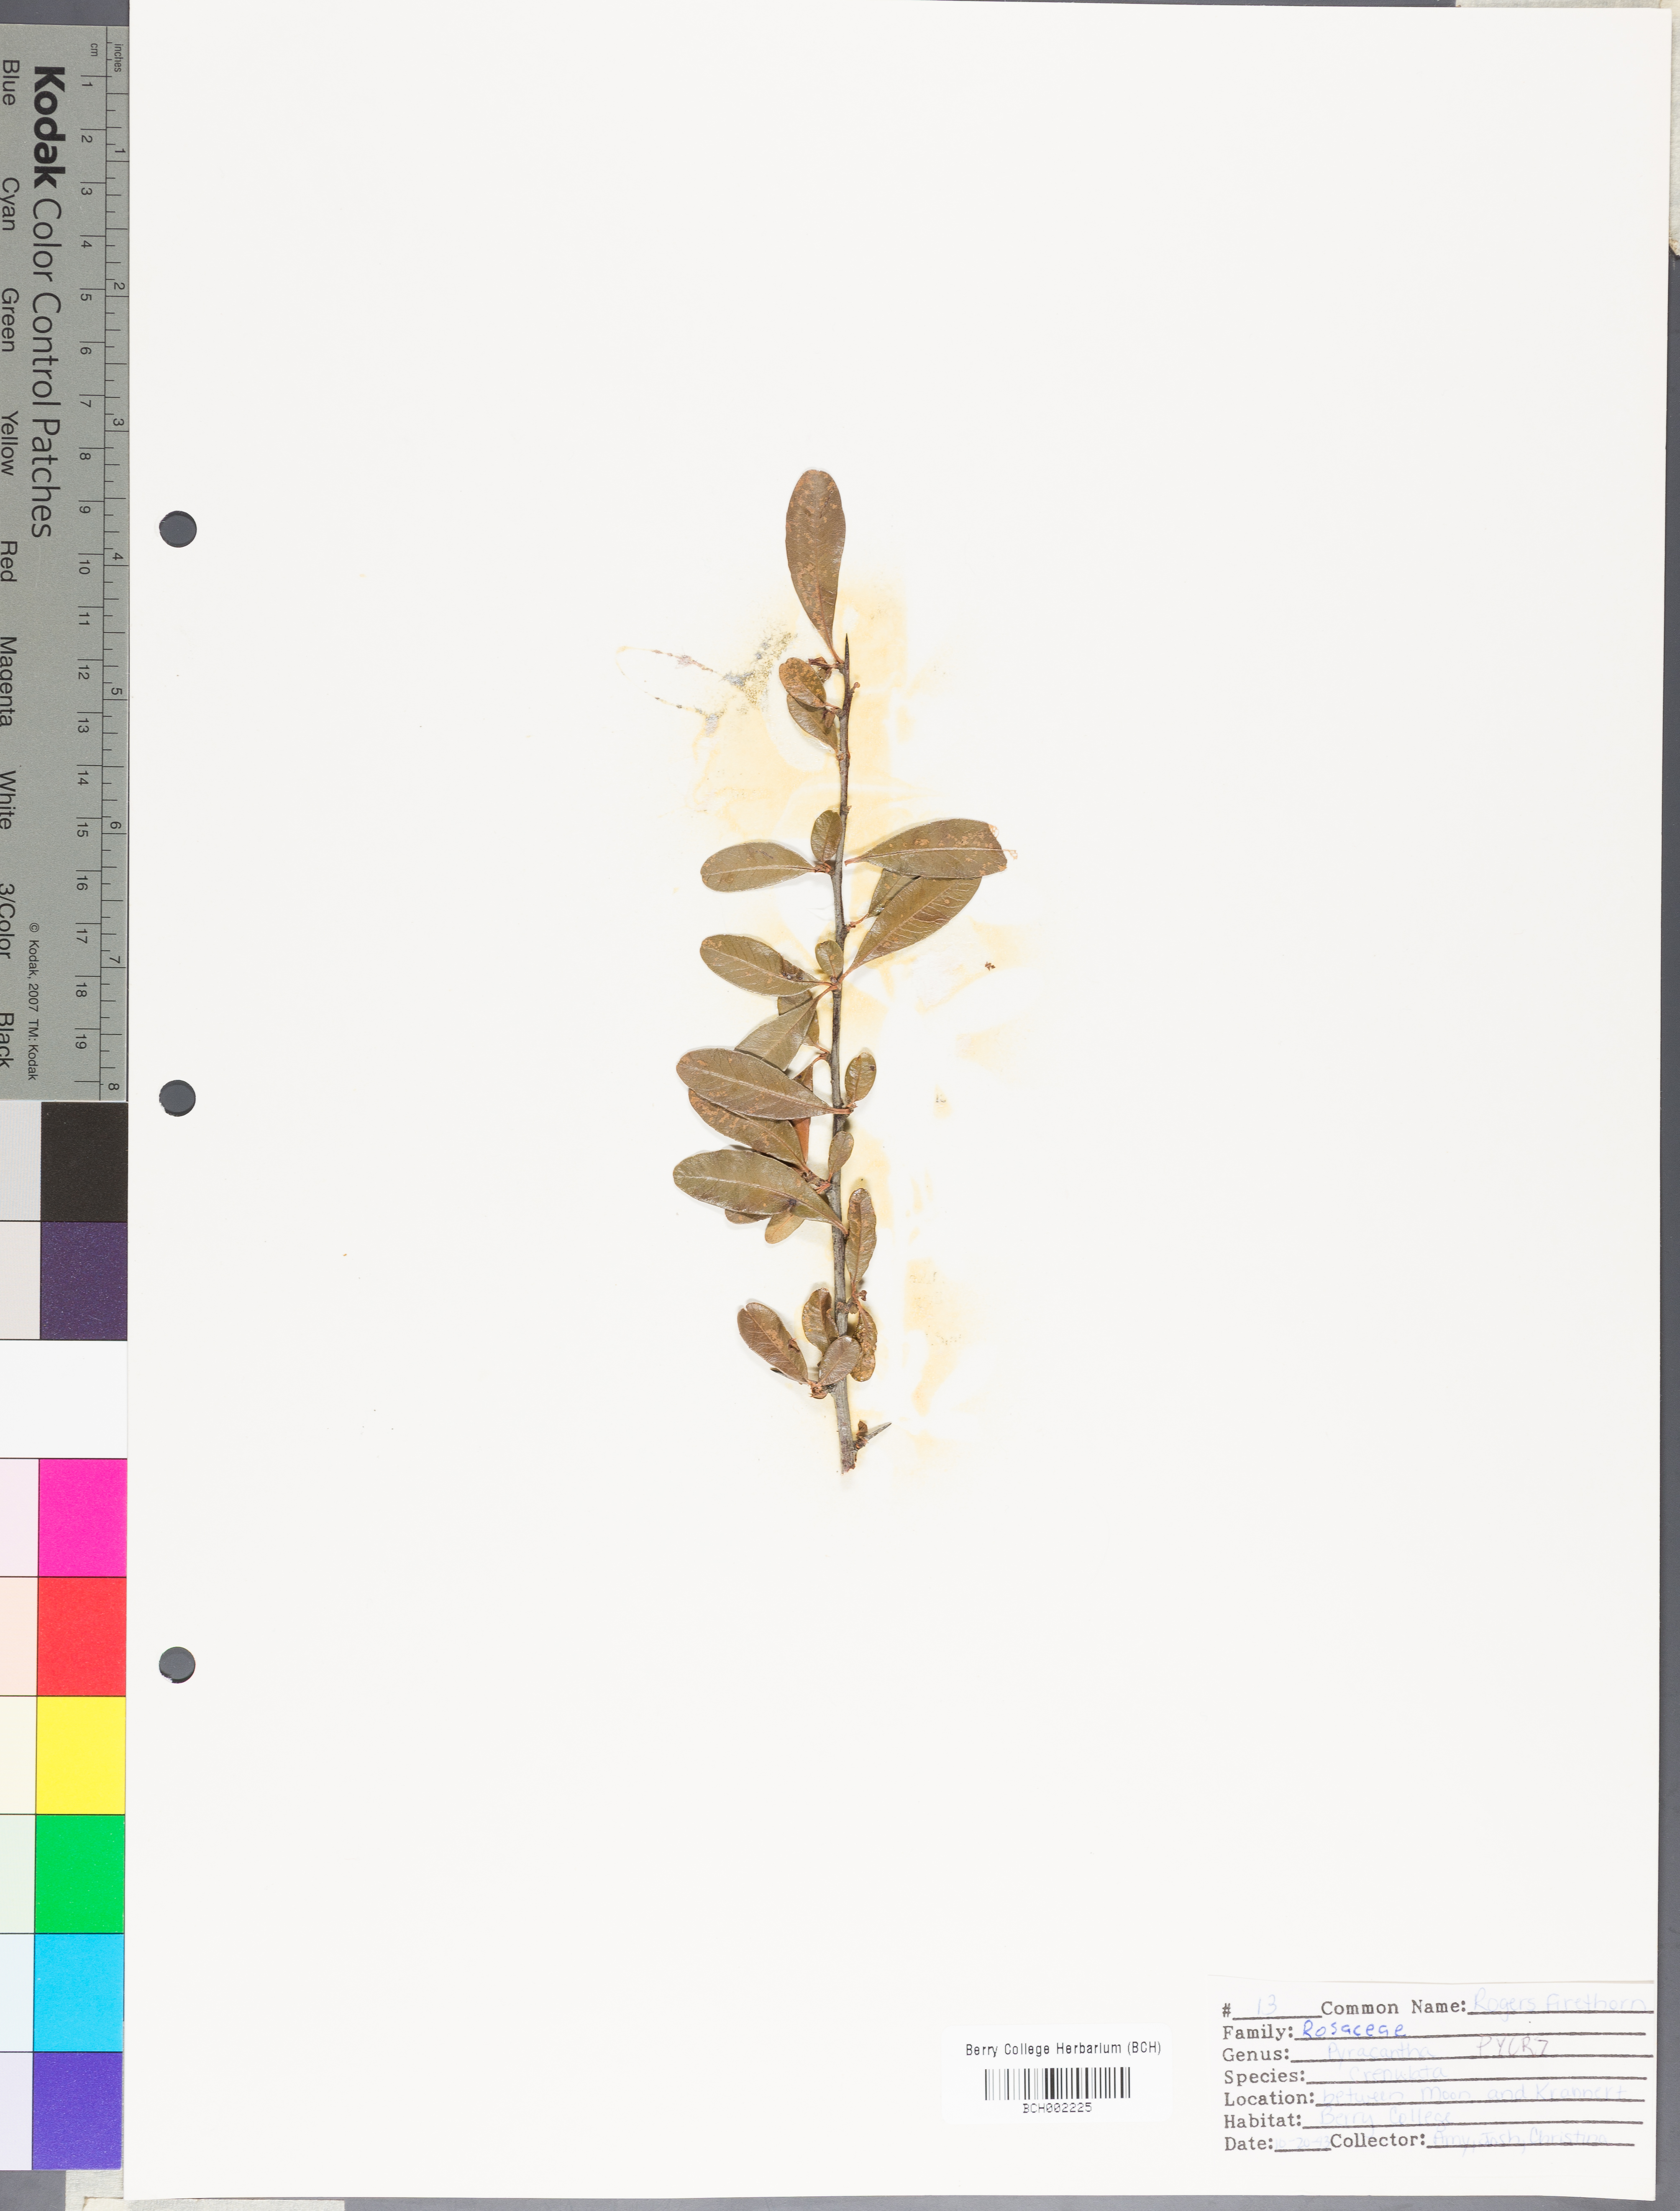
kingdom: Plantae
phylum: Tracheophyta
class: Magnoliopsida
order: Rosales
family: Rosaceae
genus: Pyracantha
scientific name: Pyracantha crenulata
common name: Nepalese firethorn
